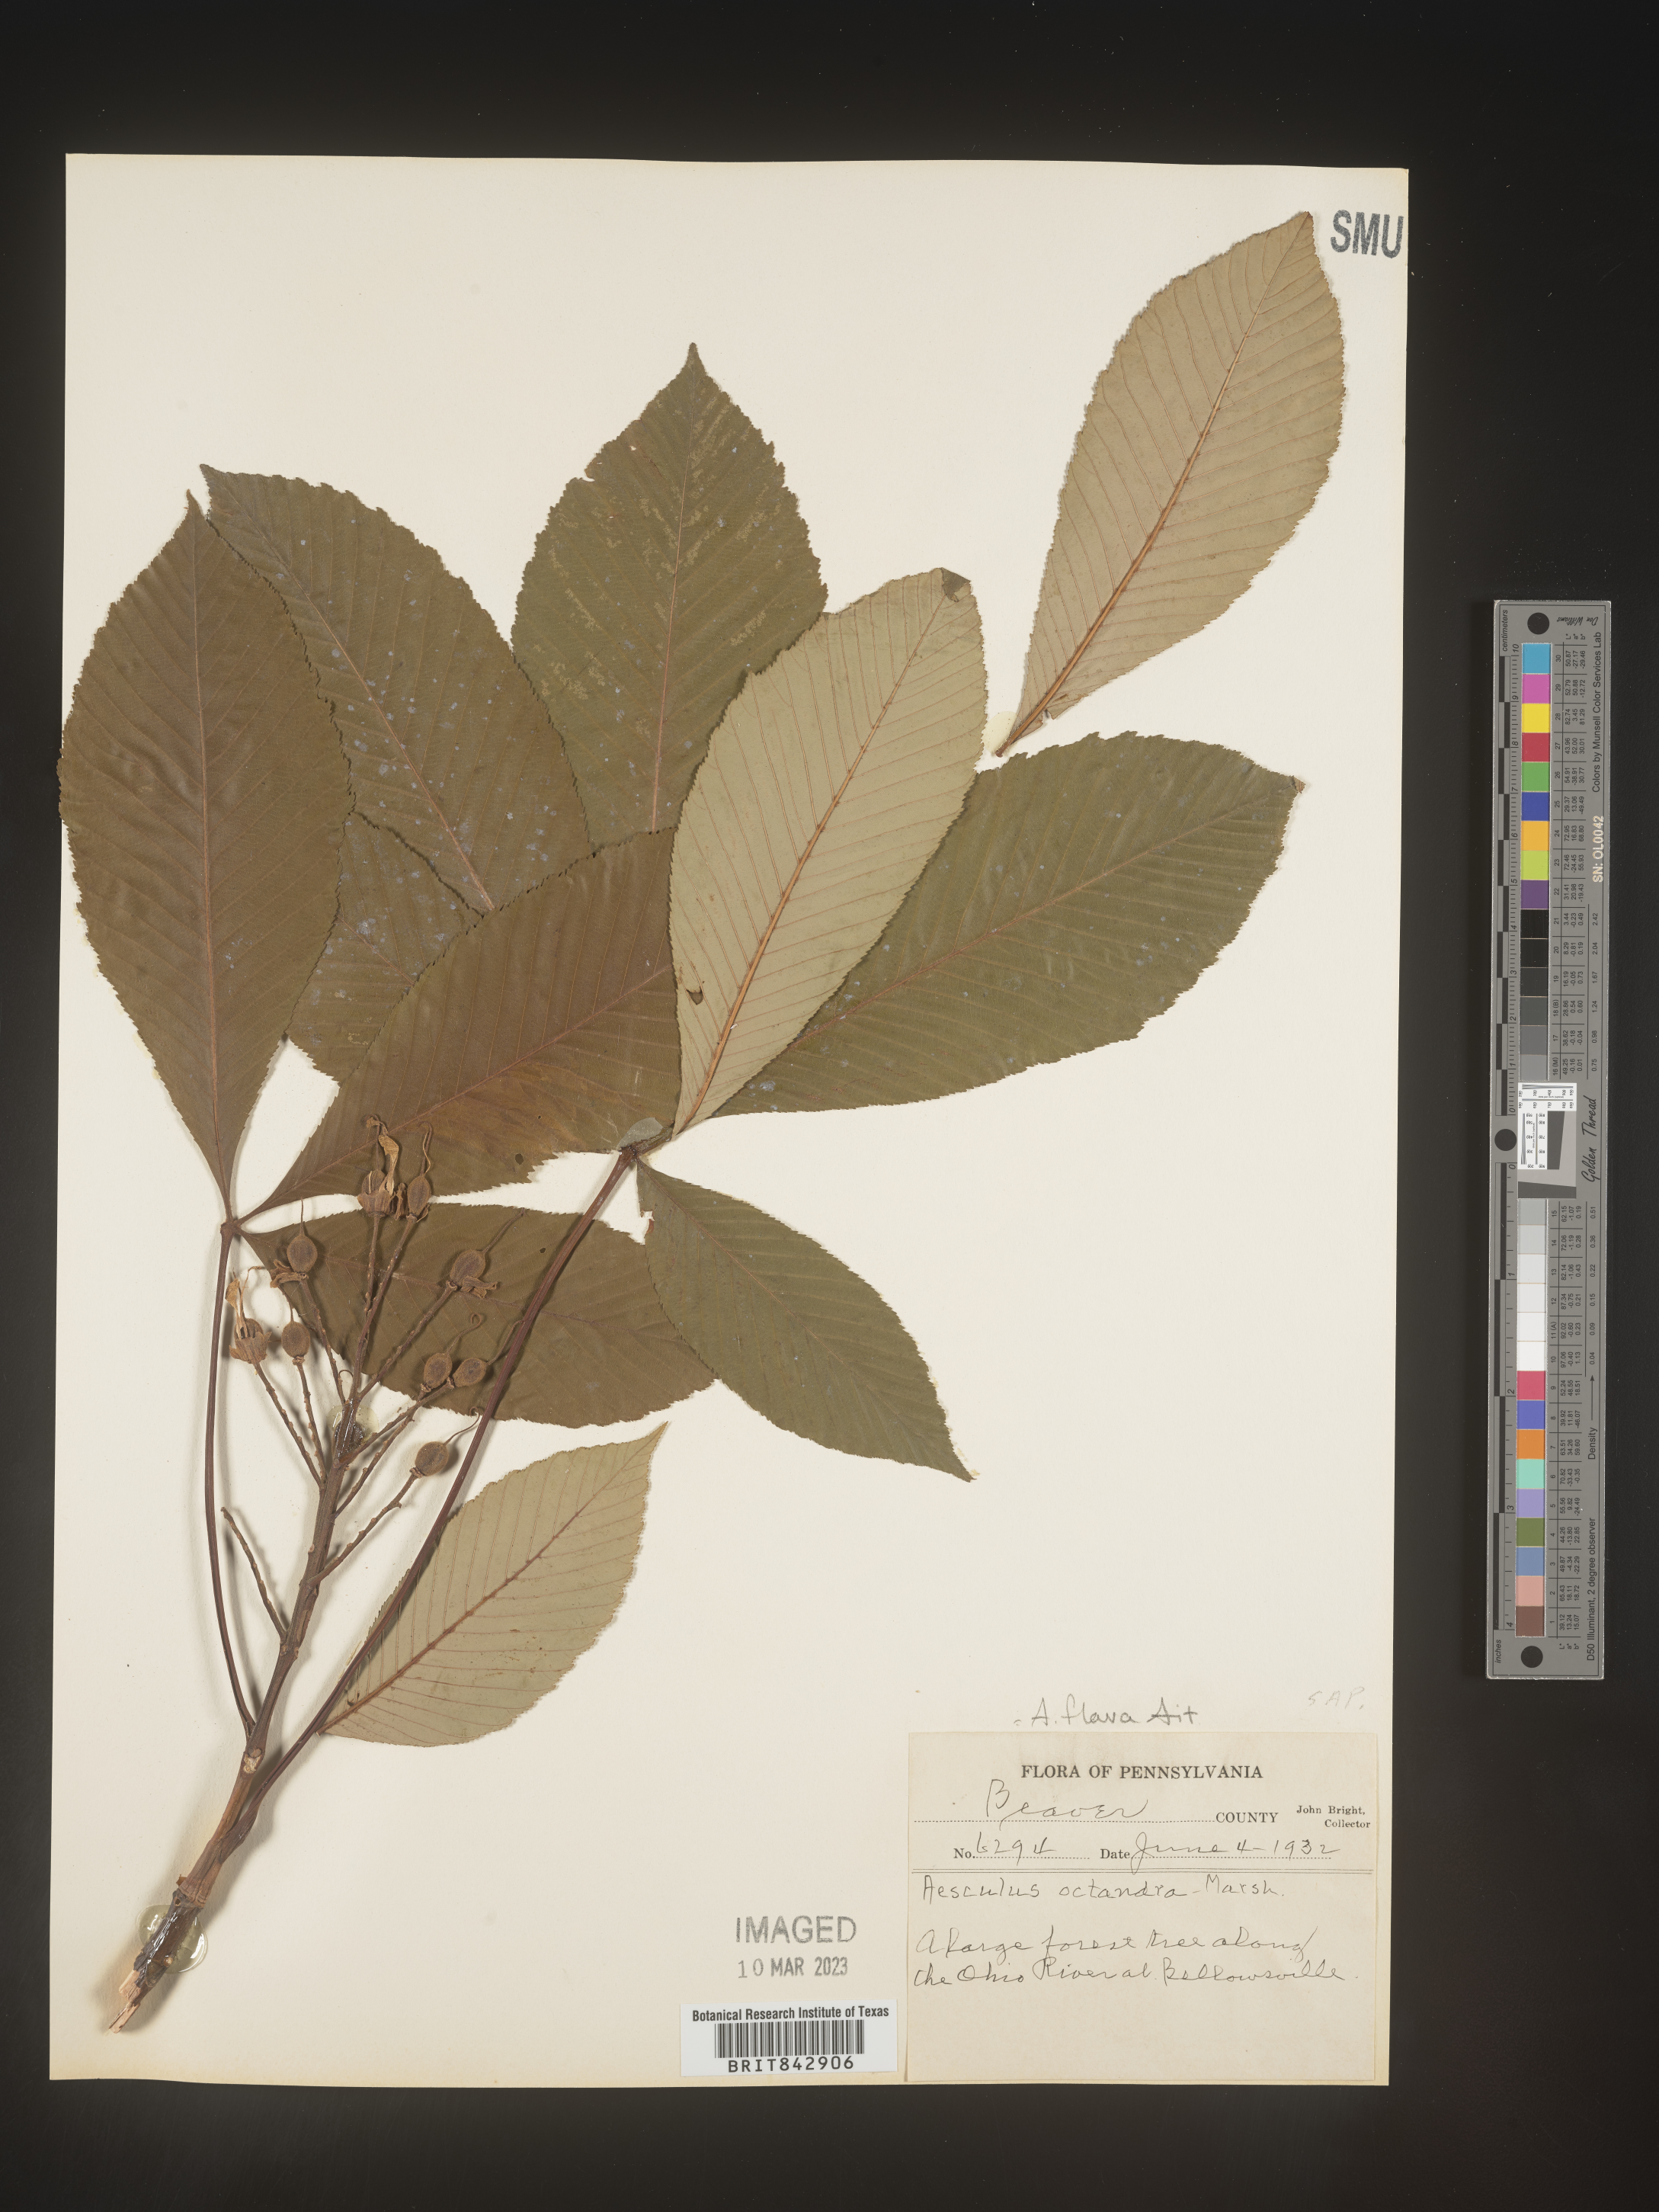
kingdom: Plantae
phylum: Tracheophyta
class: Magnoliopsida
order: Sapindales
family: Sapindaceae
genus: Aesculus
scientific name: Aesculus flava
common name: Yellow buckeye
